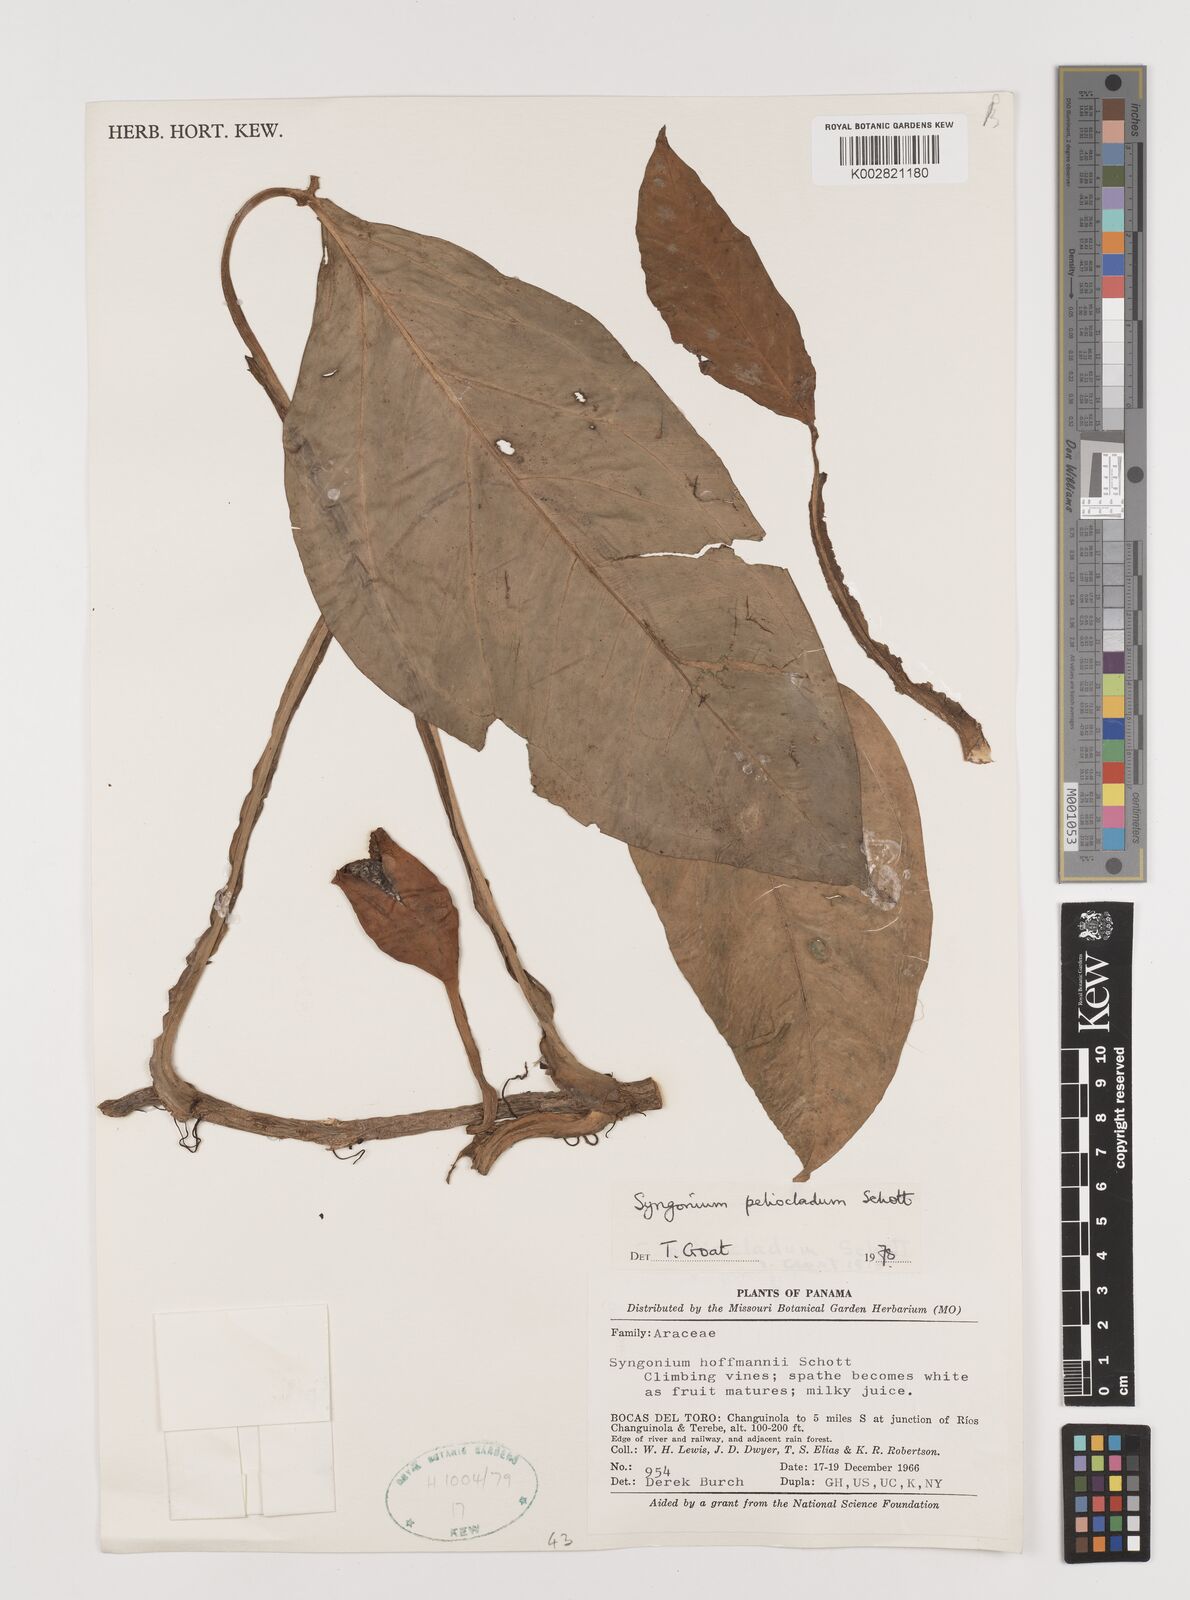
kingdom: Plantae
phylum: Tracheophyta
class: Liliopsida
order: Alismatales
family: Araceae
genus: Syngonium
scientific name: Syngonium podophyllum
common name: American evergreen
